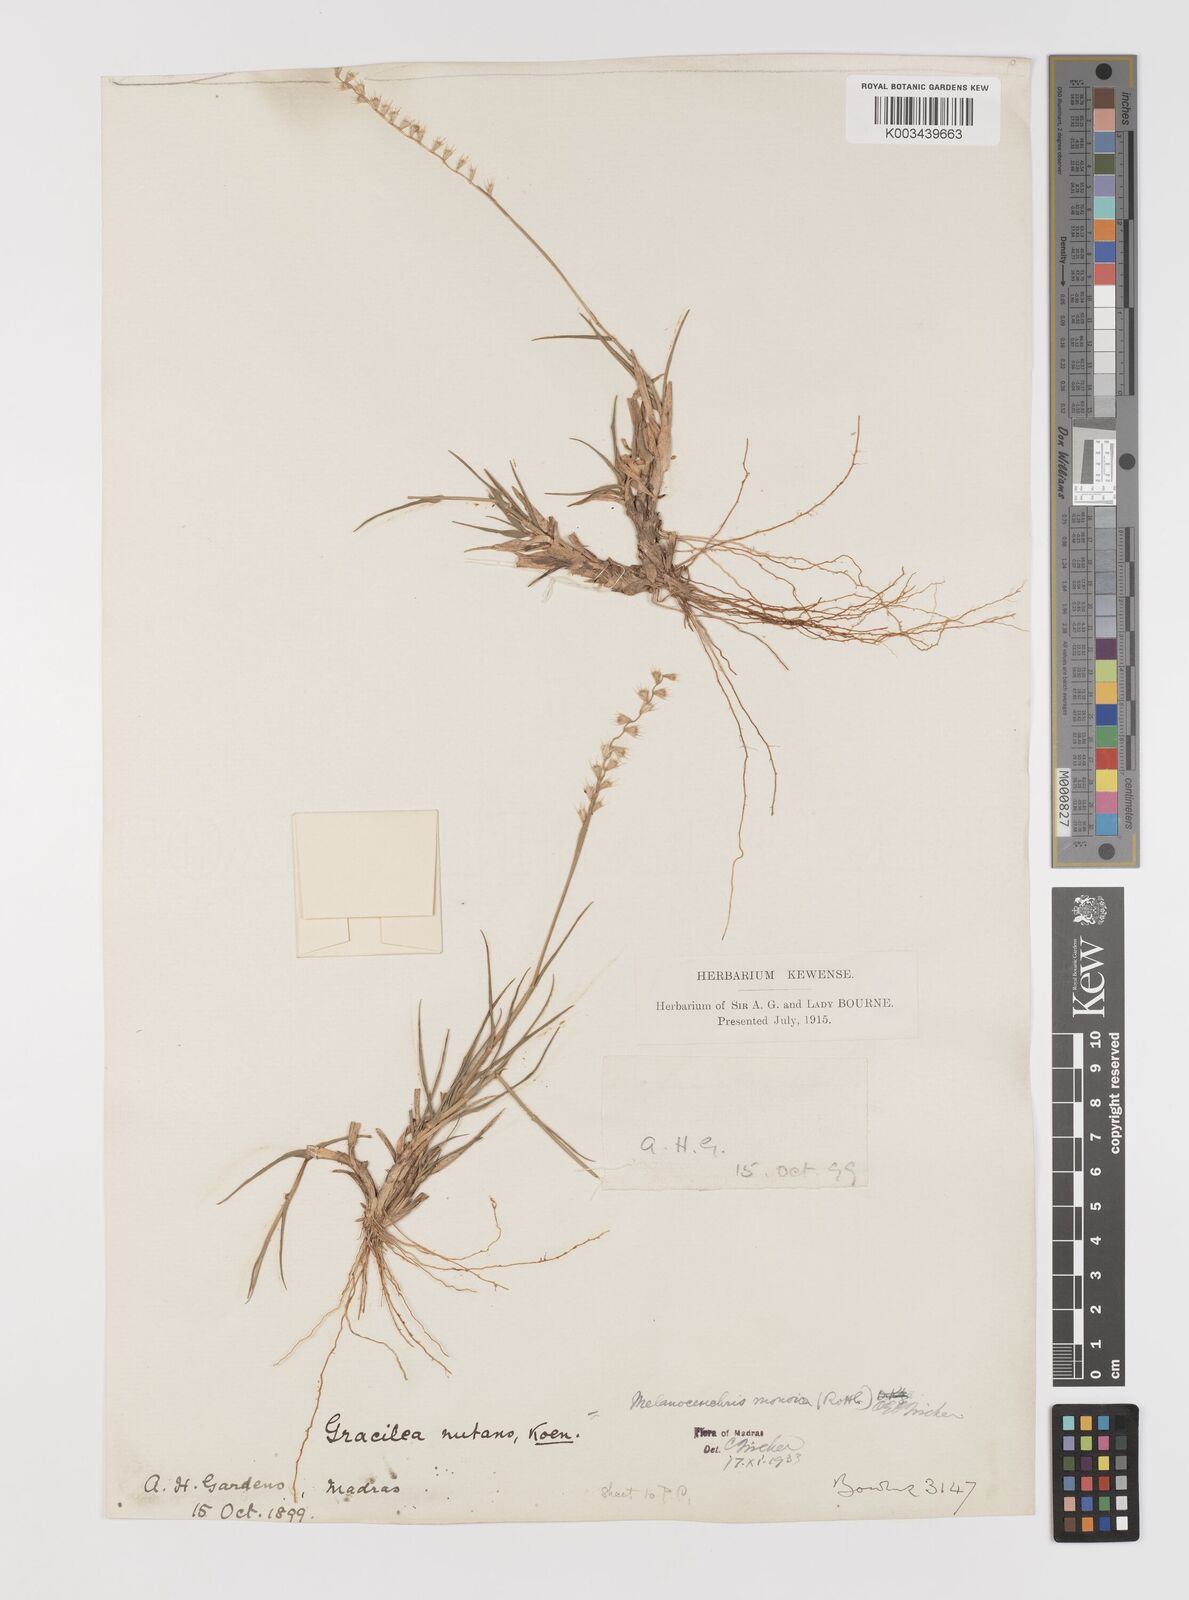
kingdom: Plantae
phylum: Tracheophyta
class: Liliopsida
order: Poales
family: Poaceae
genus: Melanocenchris
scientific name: Melanocenchris rothiana
